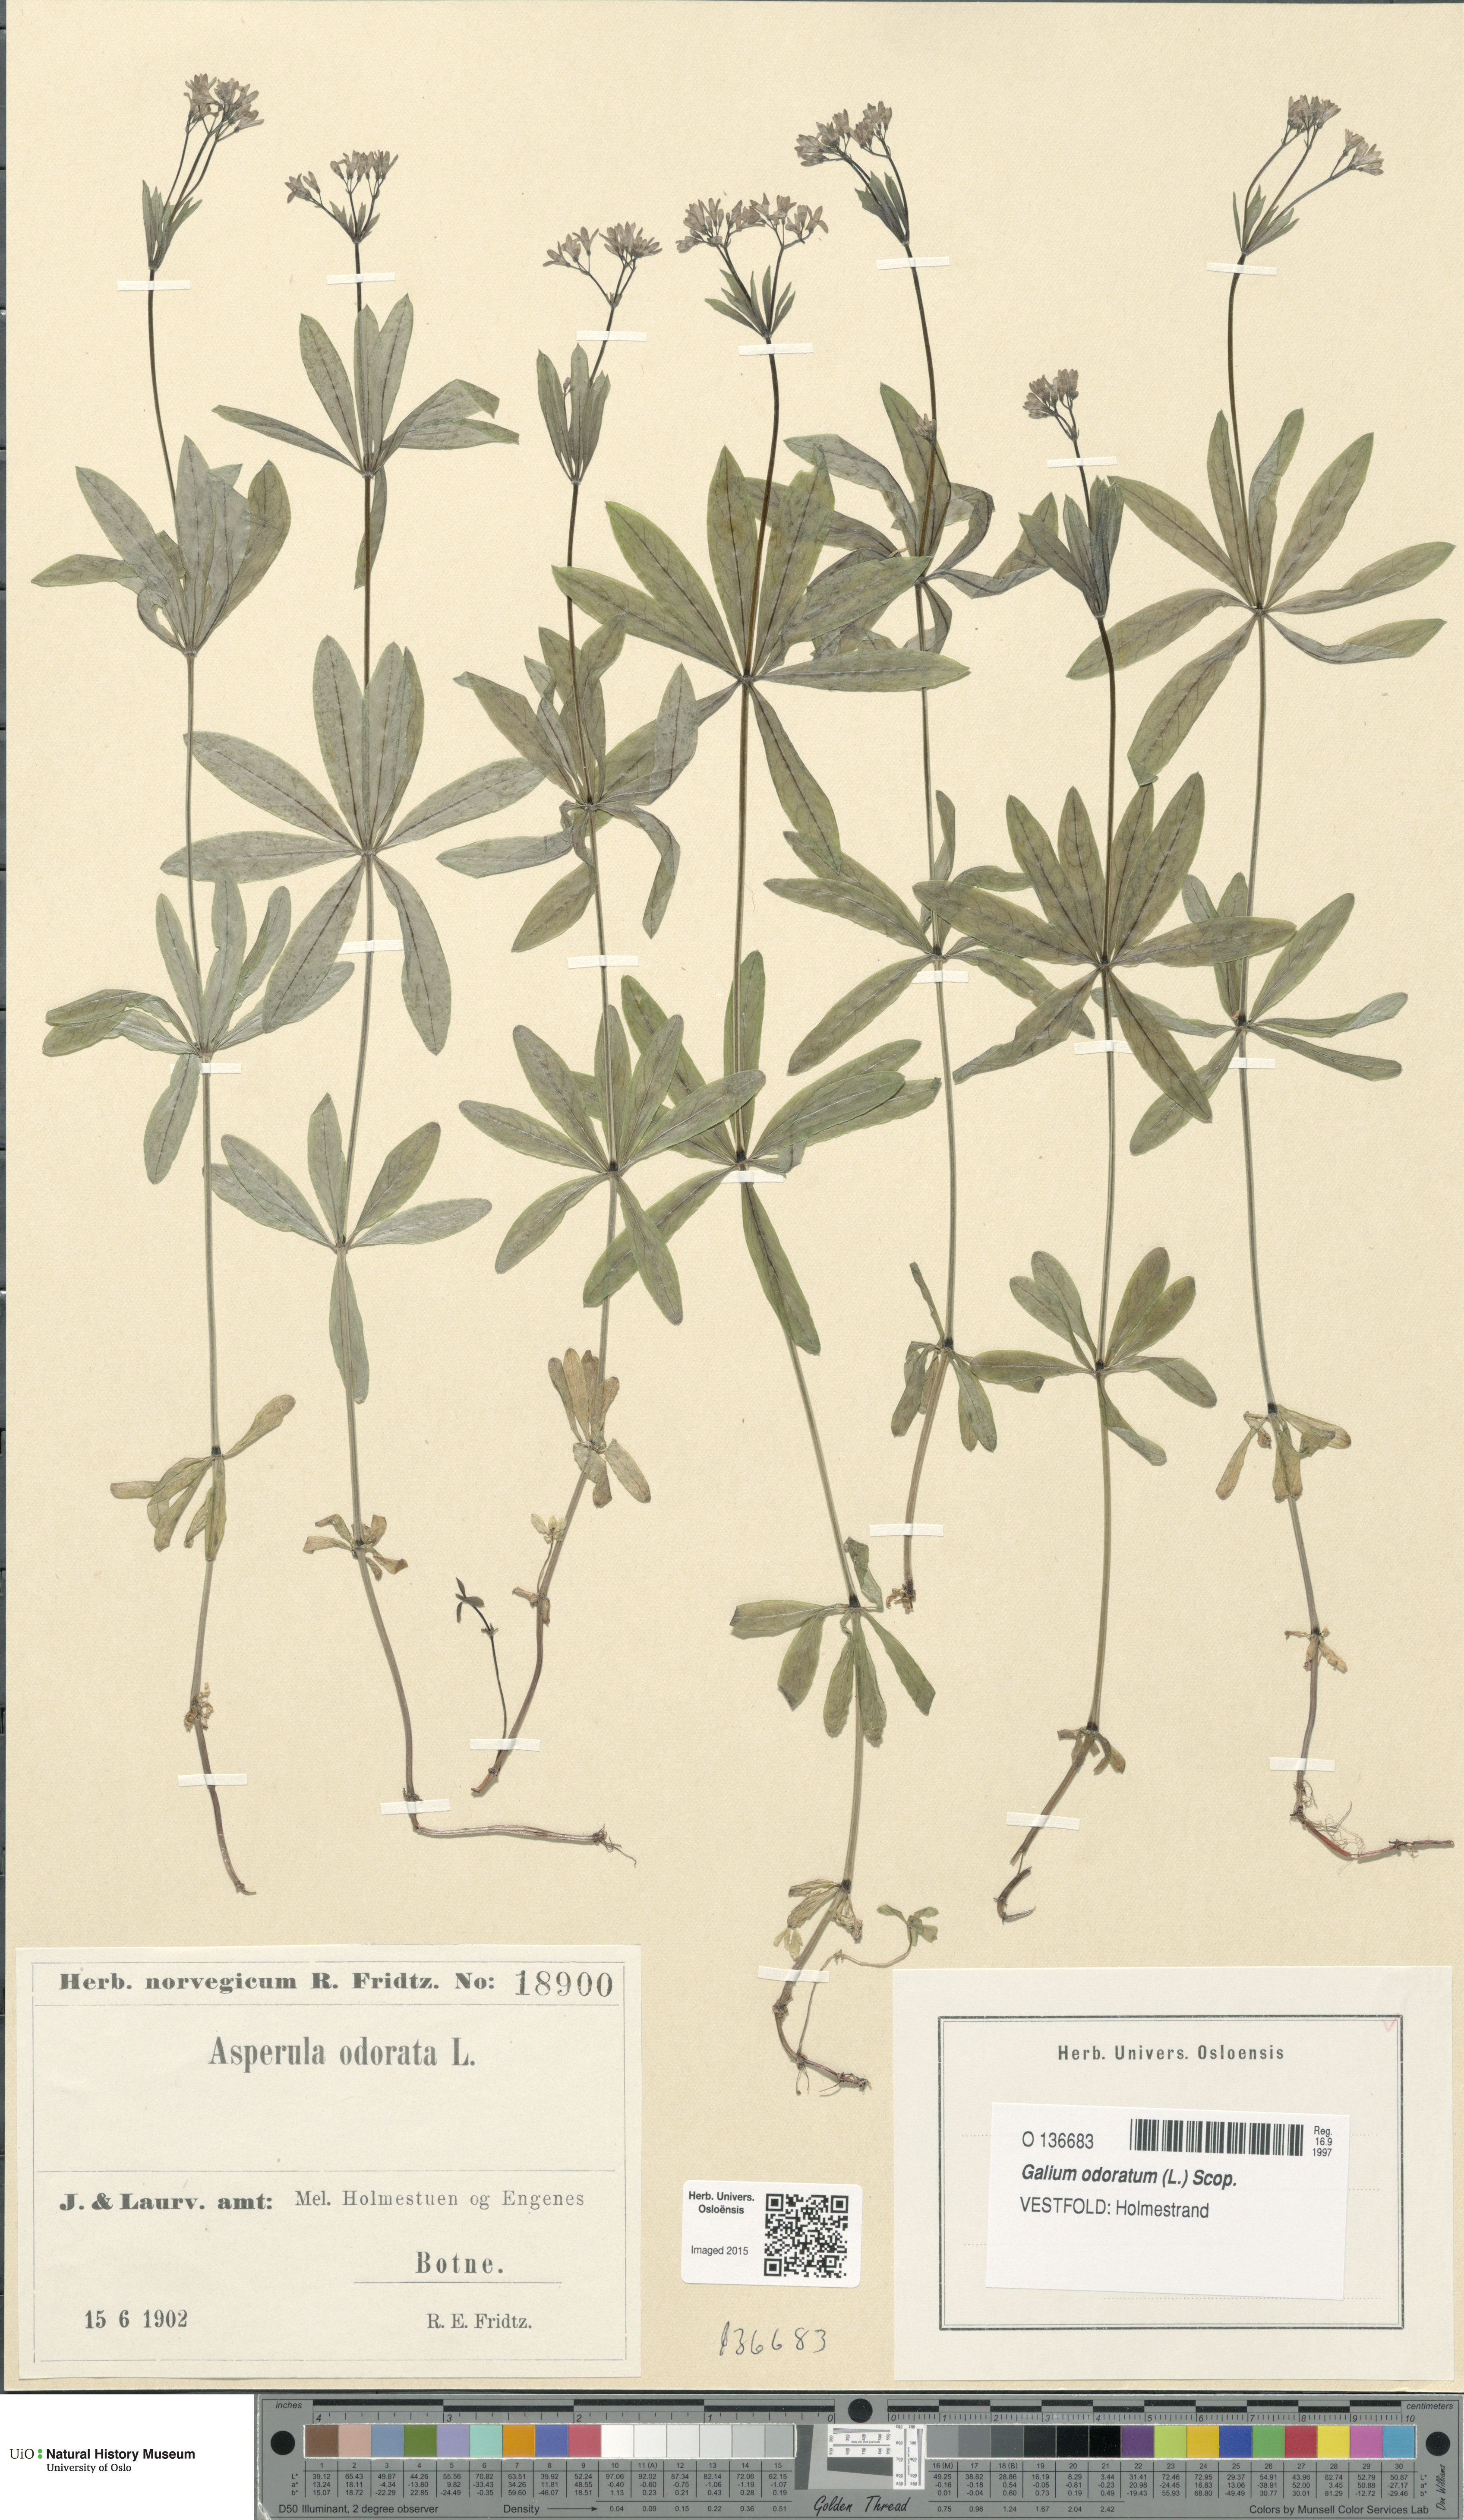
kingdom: Plantae
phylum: Tracheophyta
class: Magnoliopsida
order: Gentianales
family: Rubiaceae
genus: Galium
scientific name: Galium odoratum
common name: Sweet woodruff
